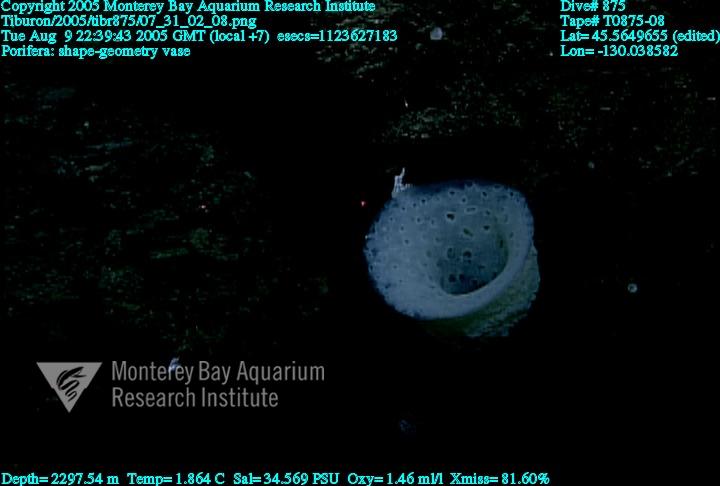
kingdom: Animalia
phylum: Porifera
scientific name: Porifera
